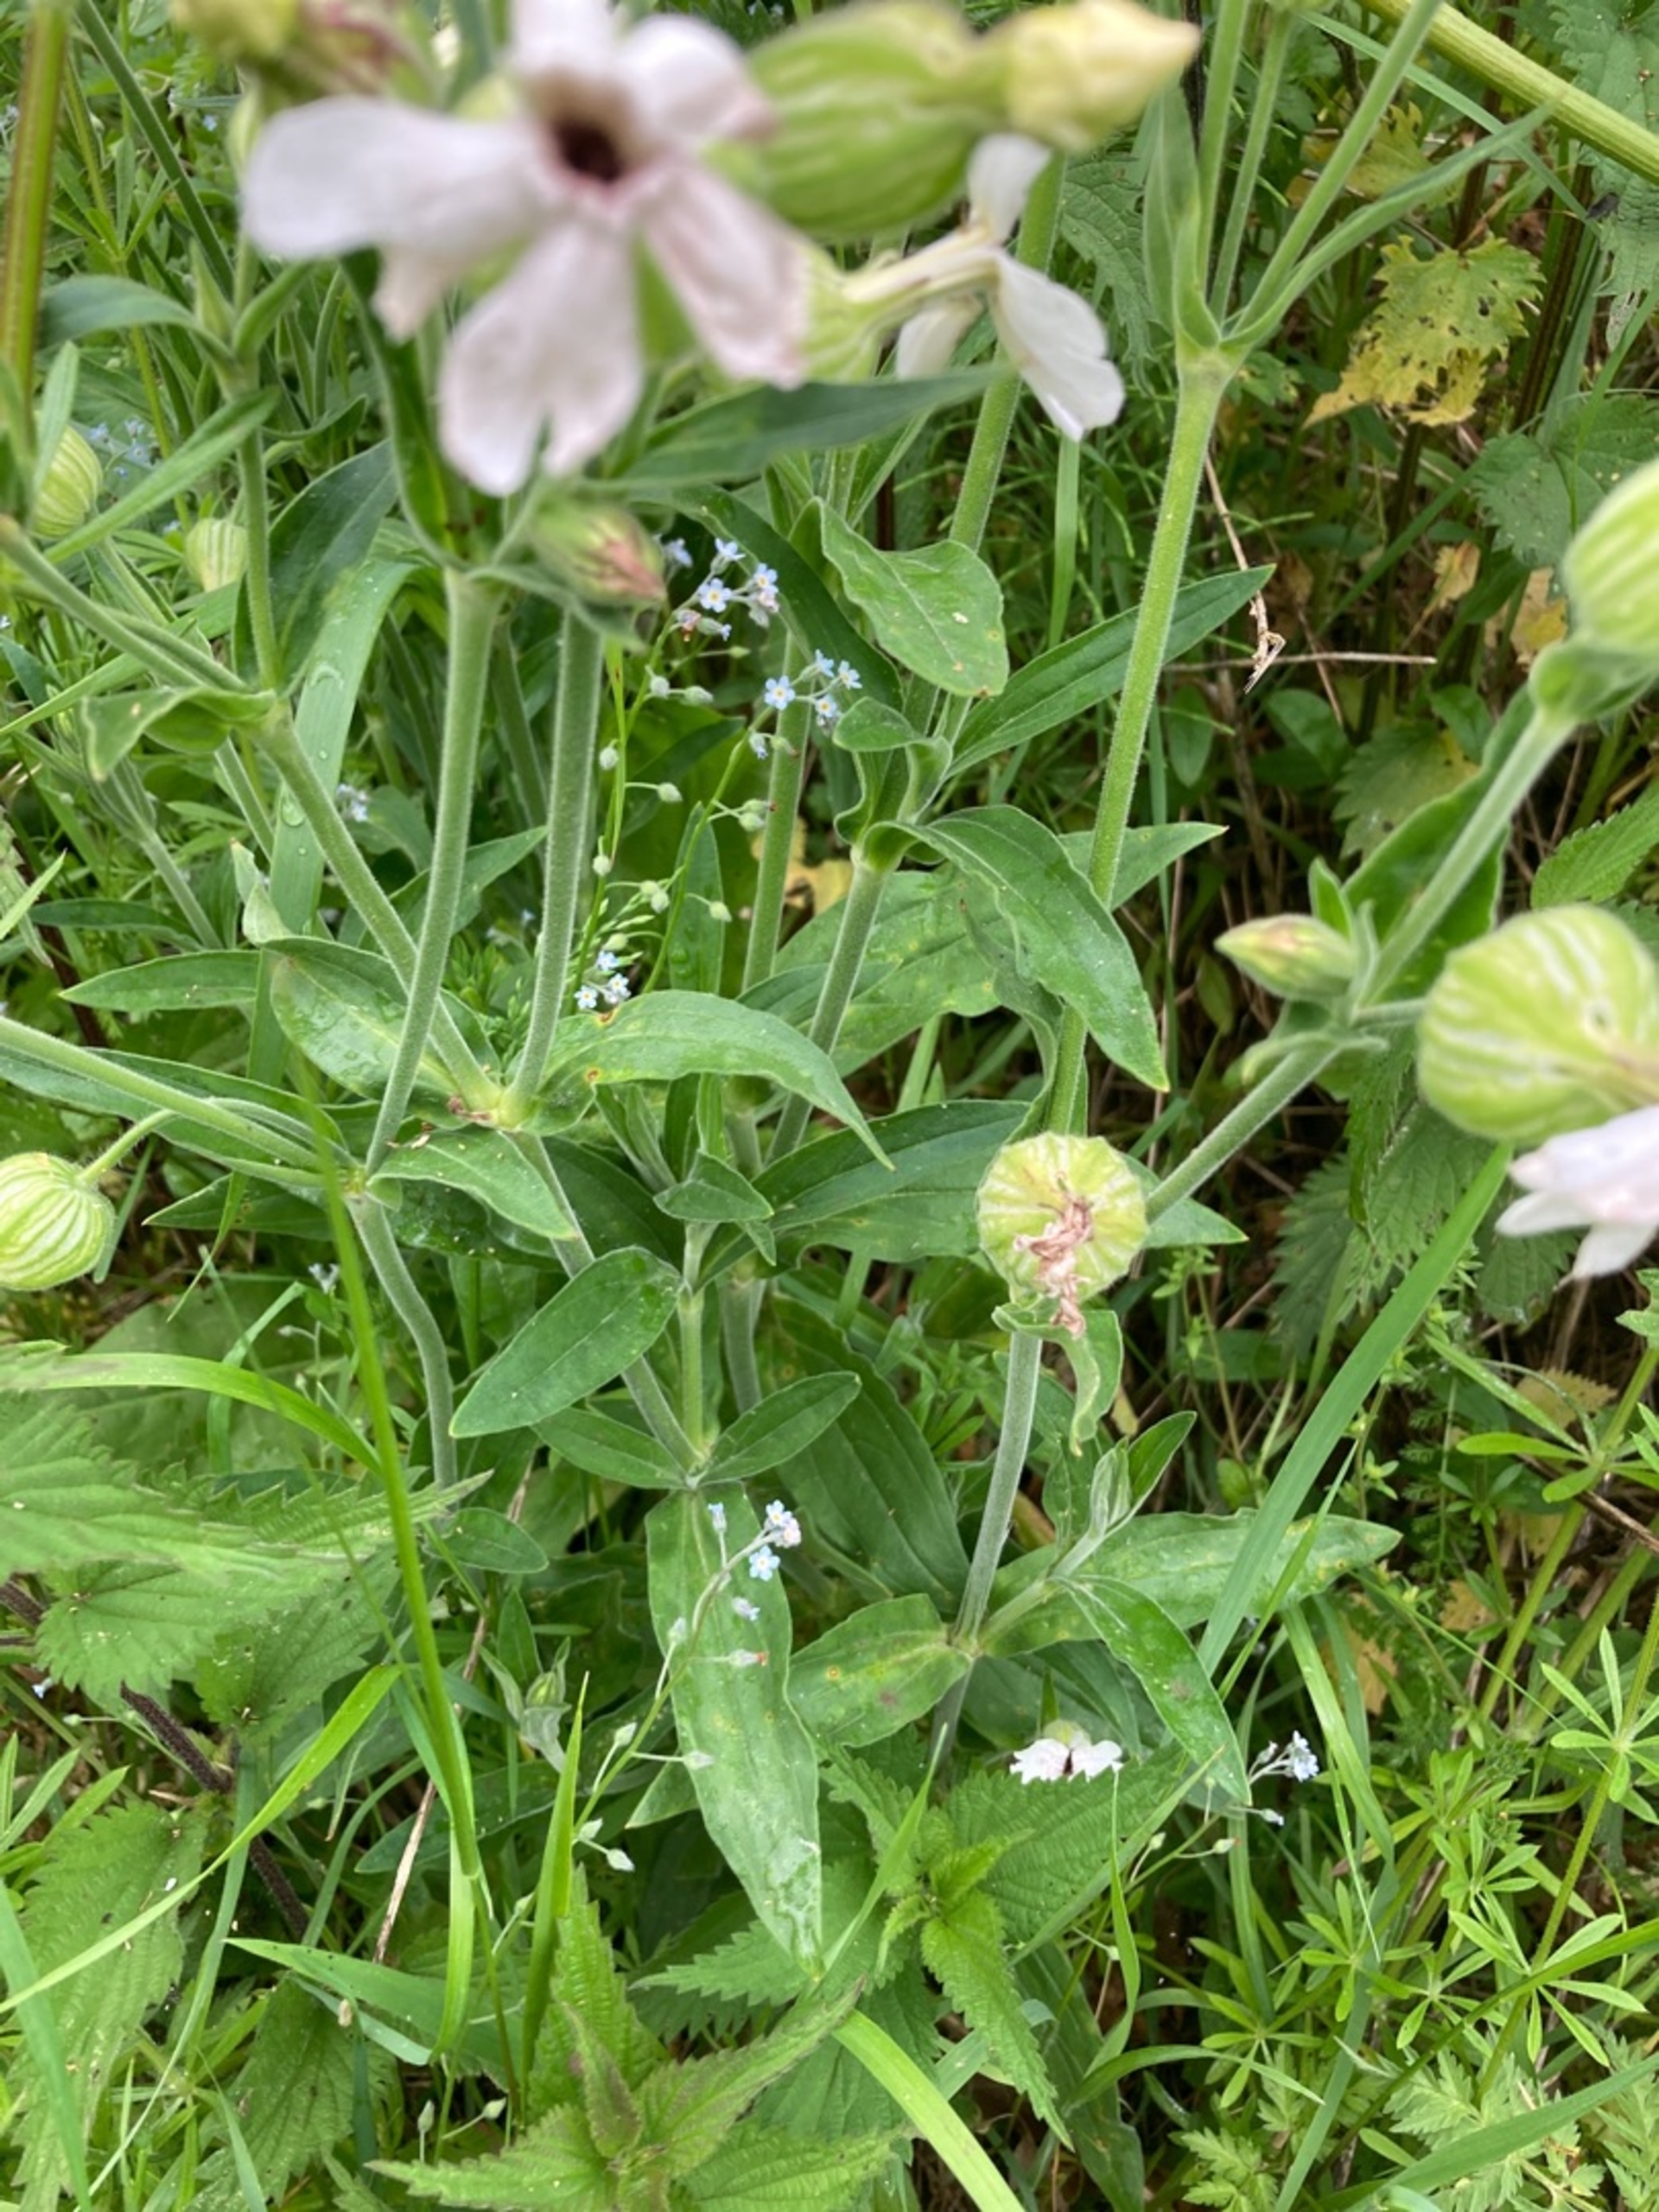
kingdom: Plantae
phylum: Tracheophyta
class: Magnoliopsida
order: Caryophyllales
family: Caryophyllaceae
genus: Silene
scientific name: Silene latifolia
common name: Aftenpragtstjerne
